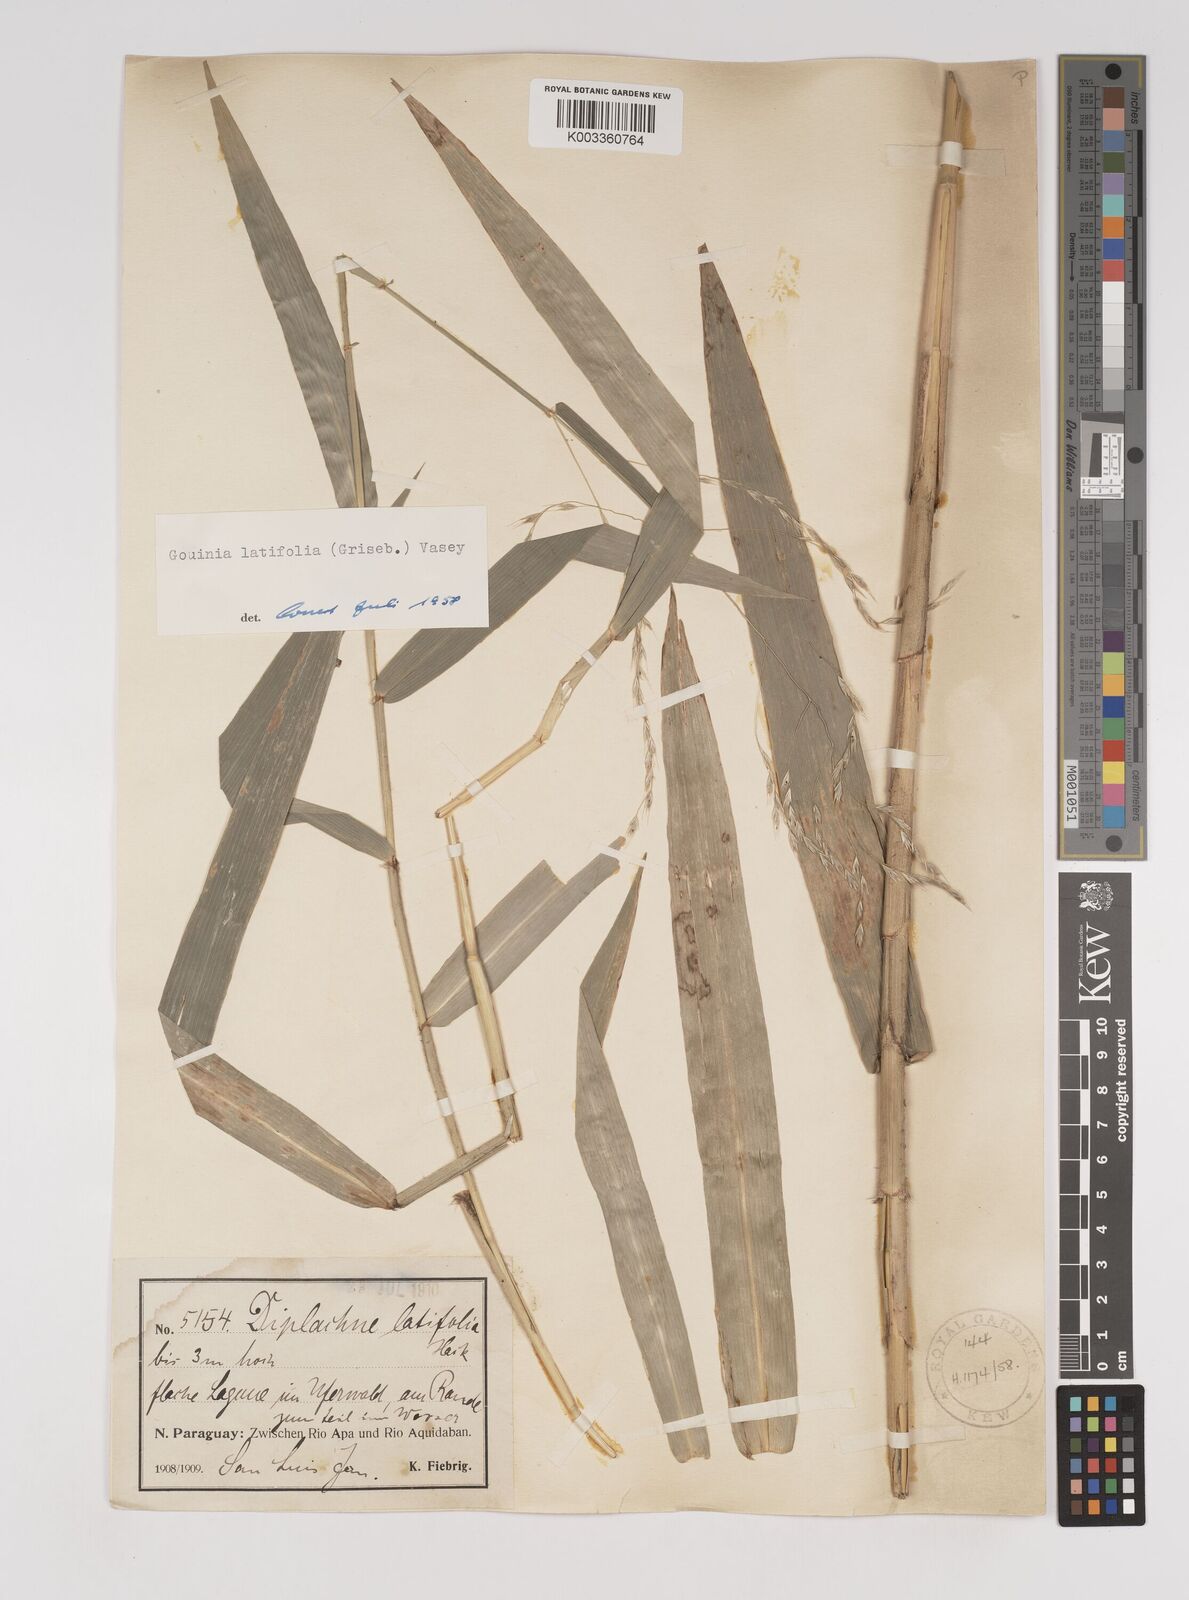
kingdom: Plantae
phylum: Tracheophyta
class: Liliopsida
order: Poales
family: Poaceae
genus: Gouinia
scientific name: Gouinia latifolia
